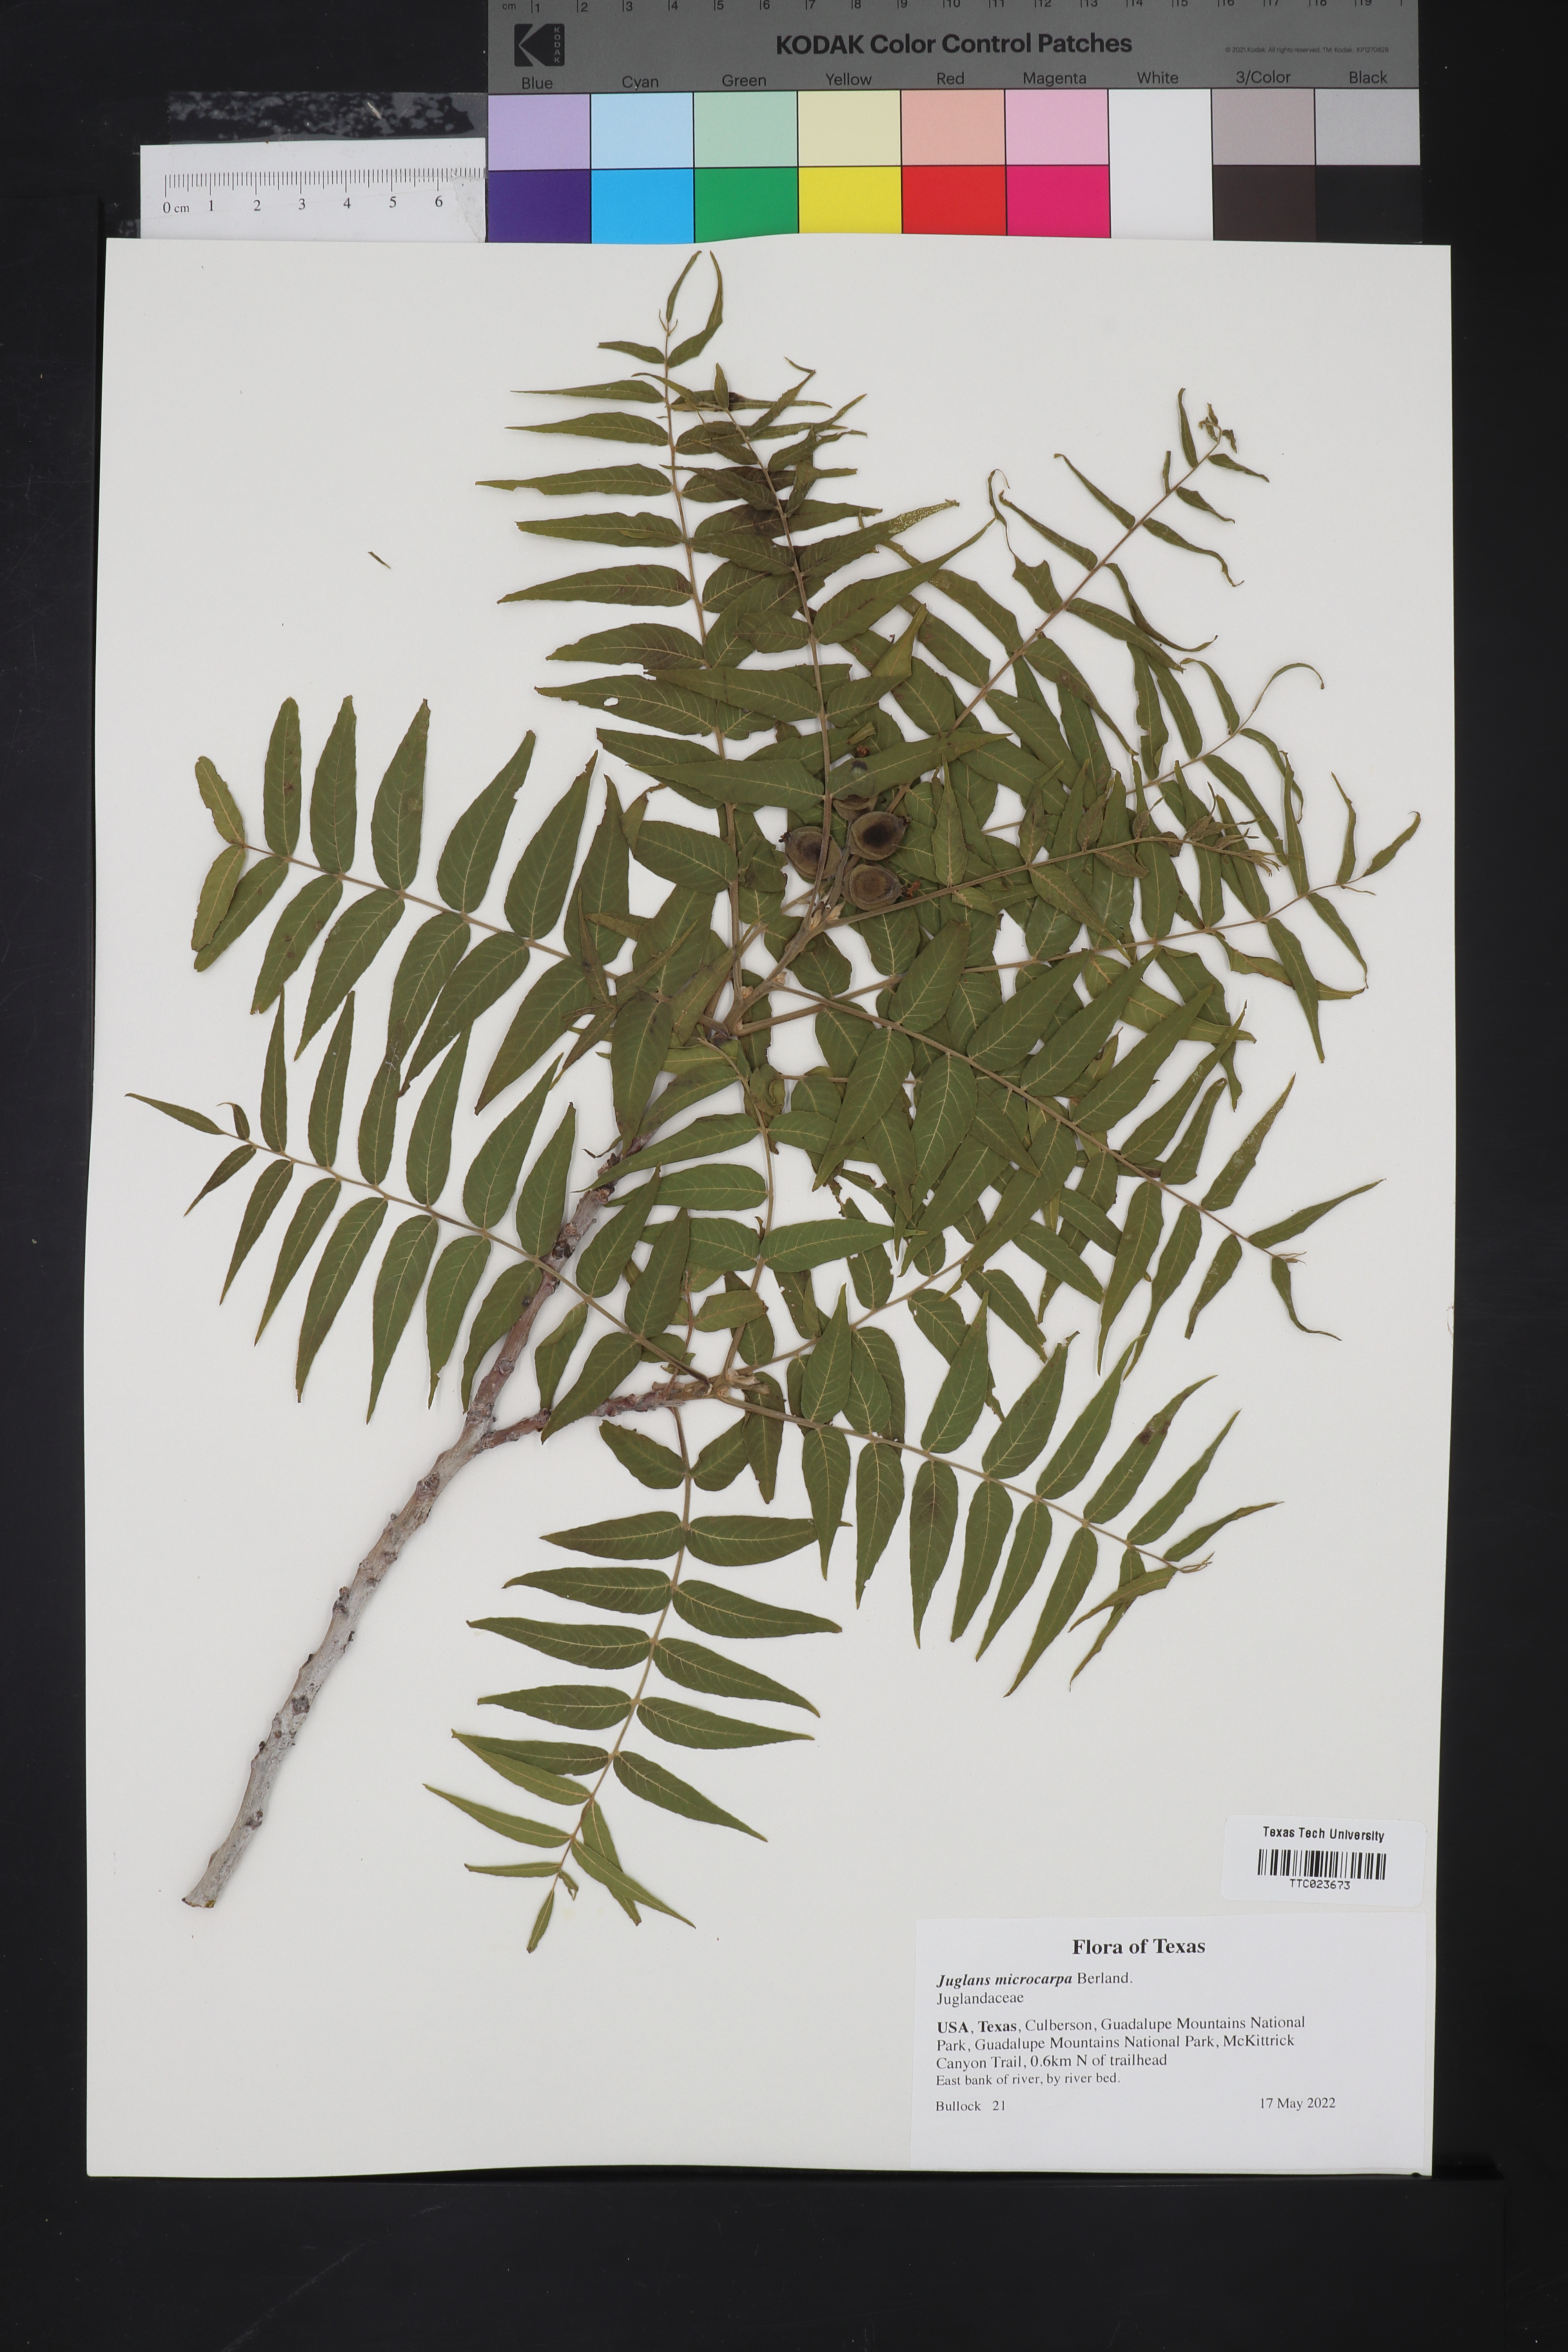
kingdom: Plantae
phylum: Tracheophyta
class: Magnoliopsida
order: Fagales
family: Juglandaceae
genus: Juglans
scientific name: Juglans microcarpa
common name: Texas walnut
